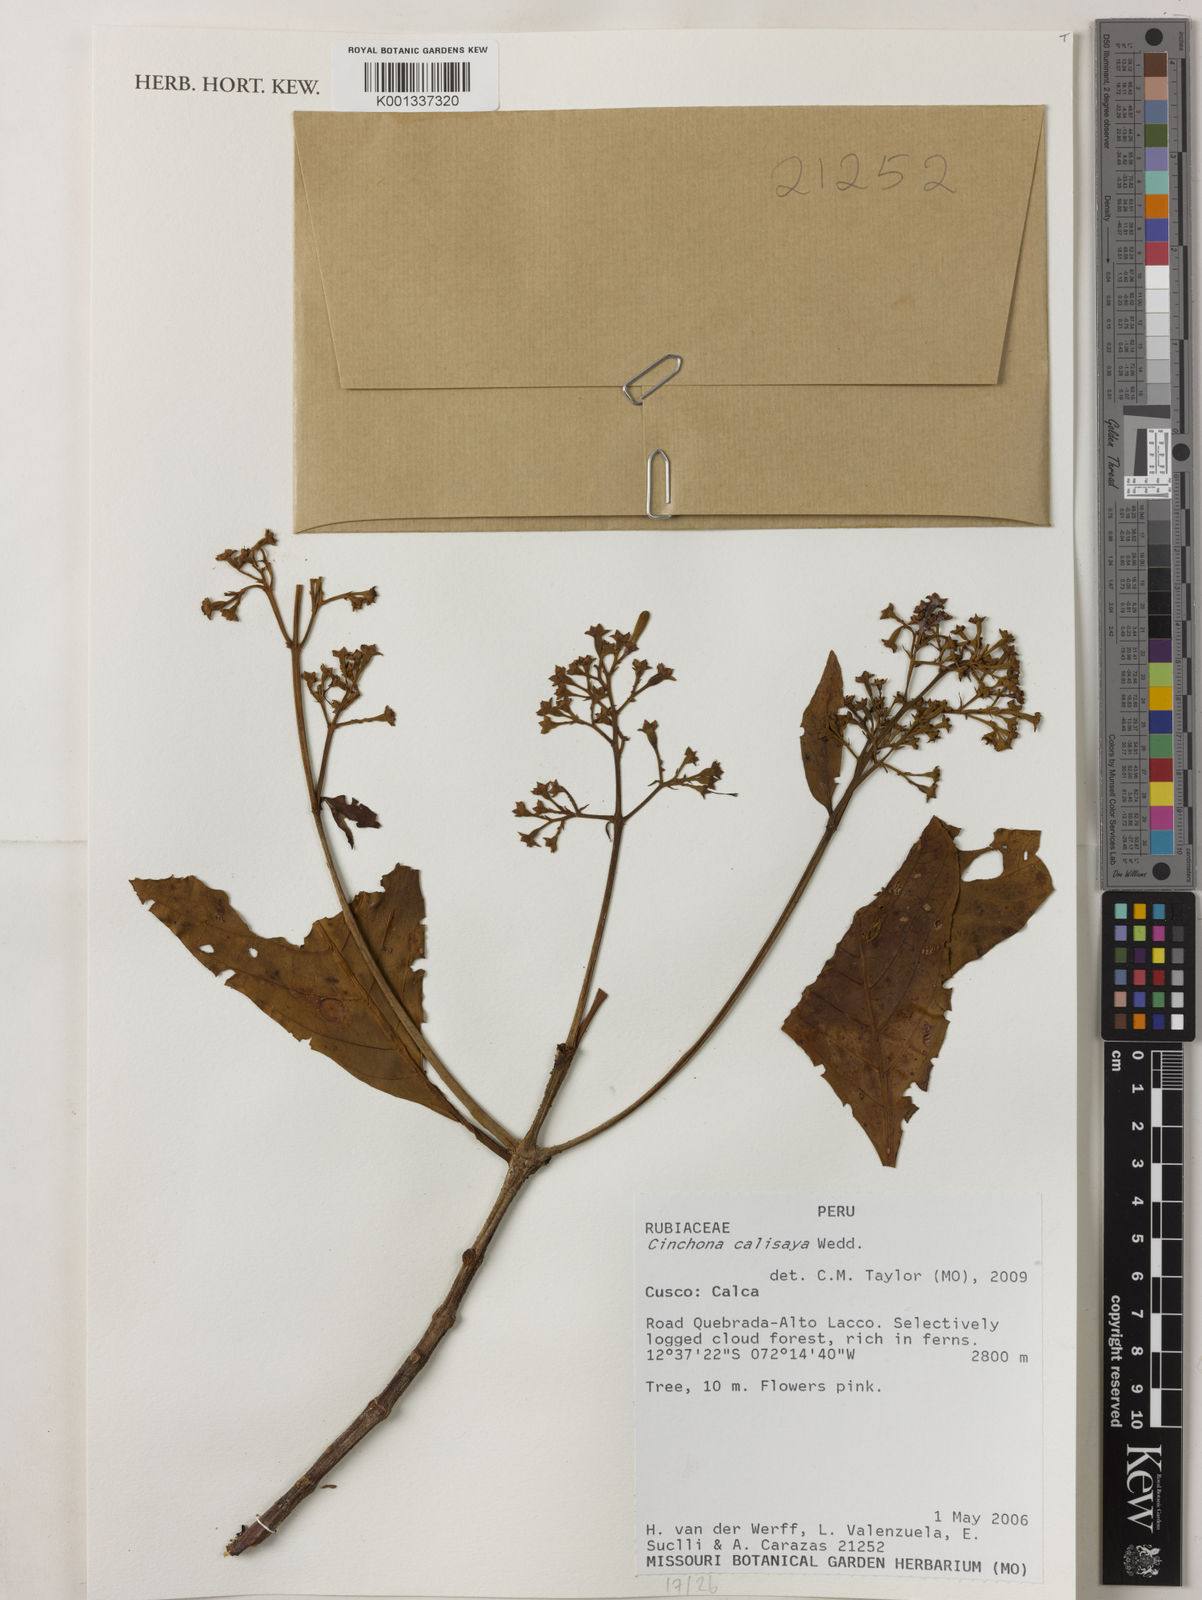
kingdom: Plantae
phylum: Tracheophyta
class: Magnoliopsida
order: Gentianales
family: Rubiaceae
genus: Cinchona
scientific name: Cinchona calisaya
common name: Ledgerbark
